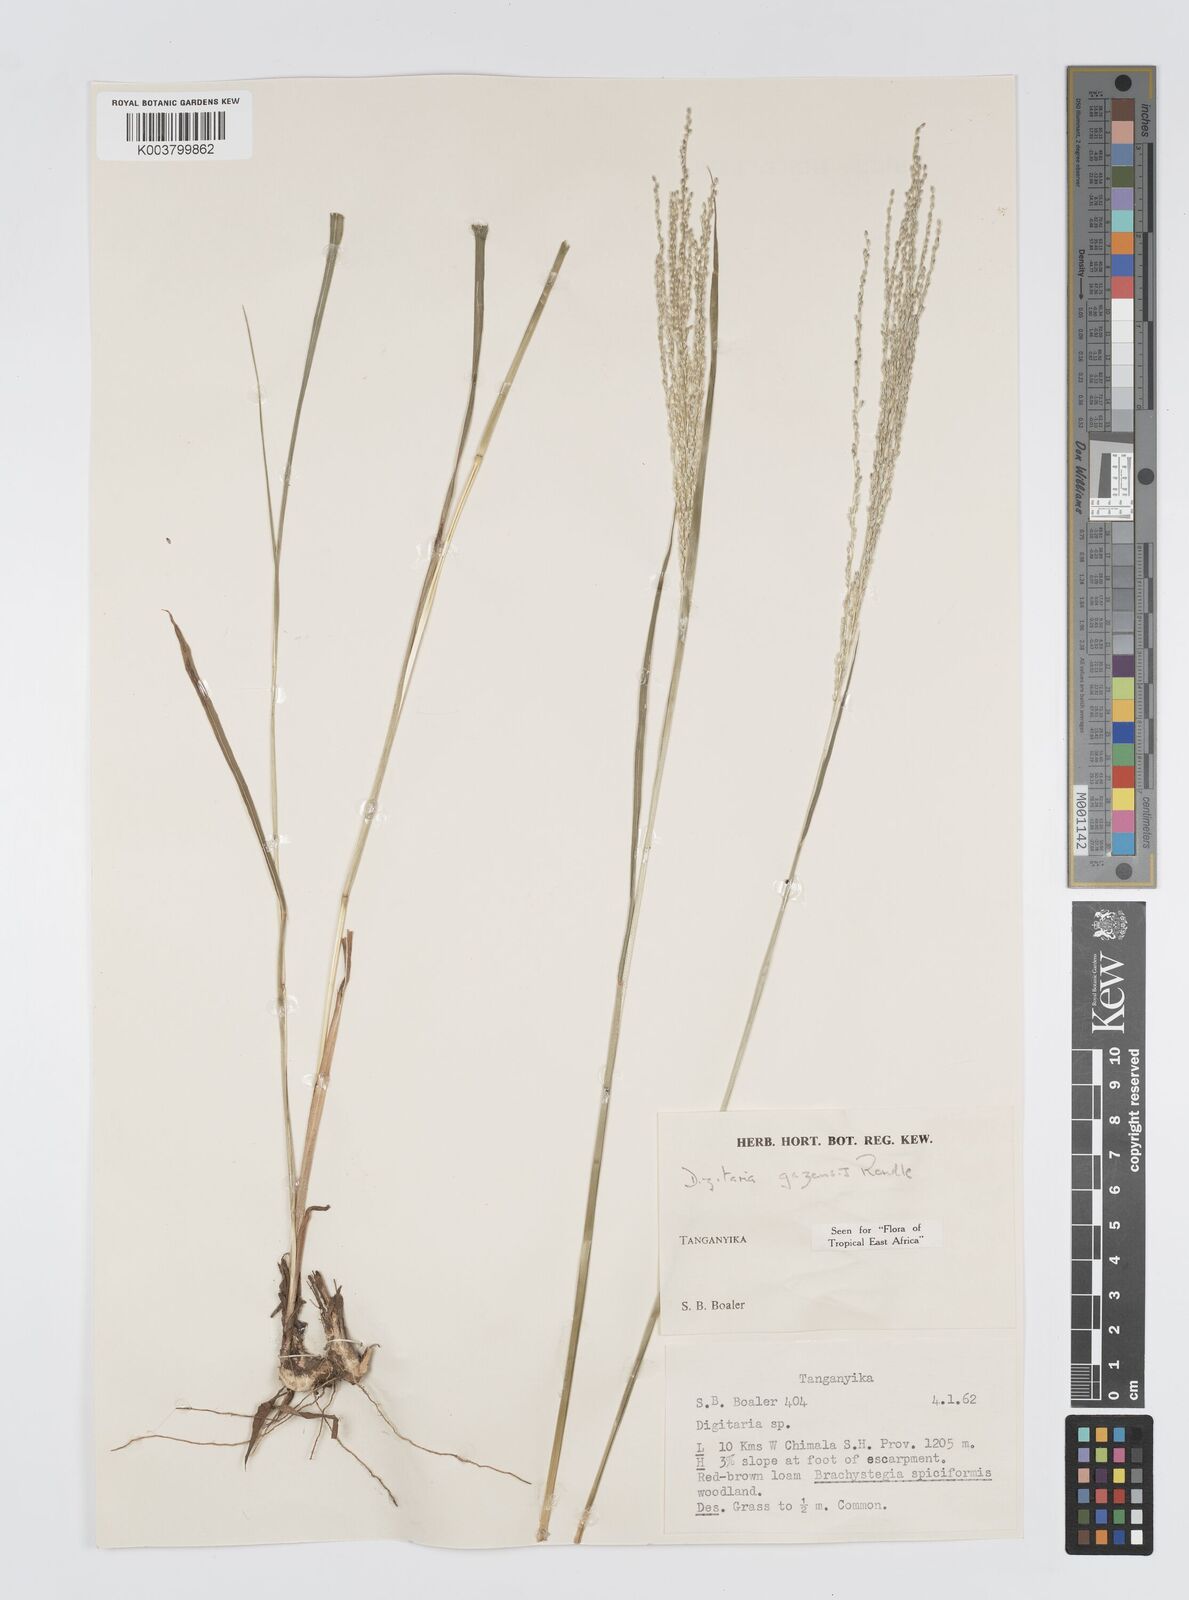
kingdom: Plantae
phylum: Tracheophyta
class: Liliopsida
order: Poales
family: Poaceae
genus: Digitaria
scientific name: Digitaria gazensis
